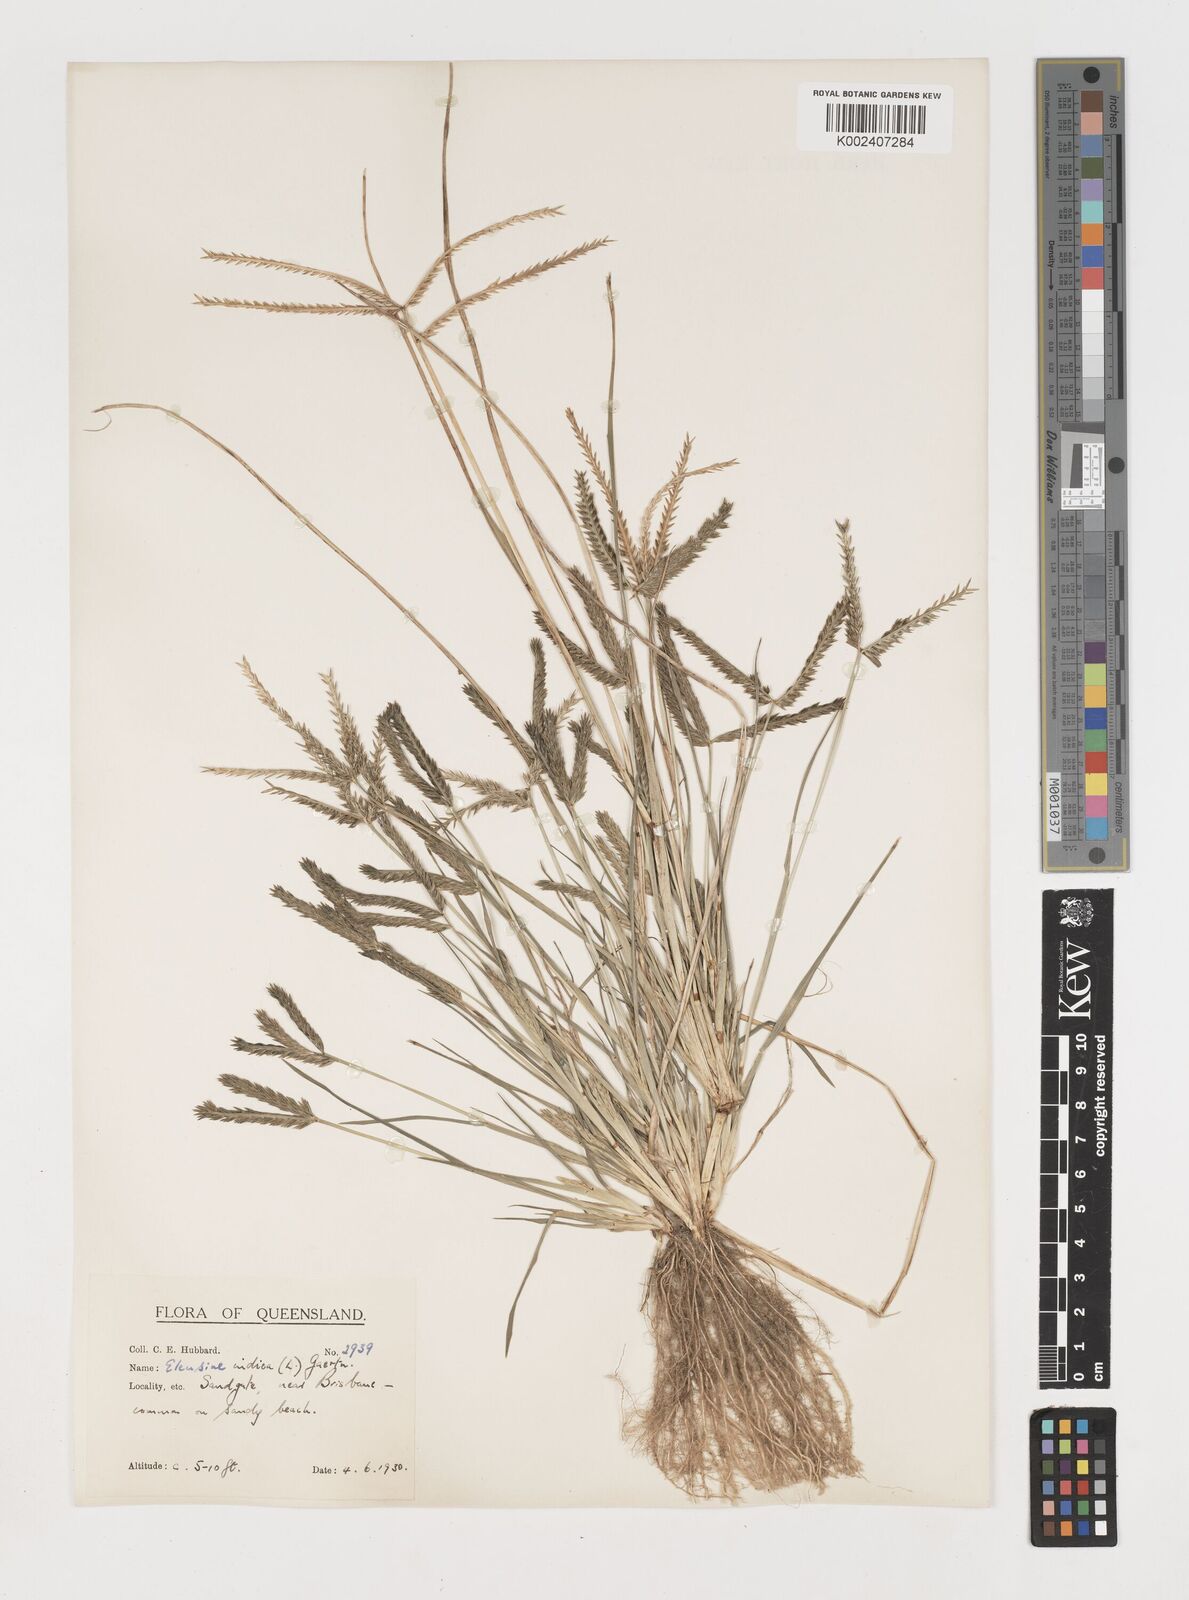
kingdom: Plantae
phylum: Tracheophyta
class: Liliopsida
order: Poales
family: Poaceae
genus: Eleusine
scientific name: Eleusine africana
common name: Wild african finger millet
